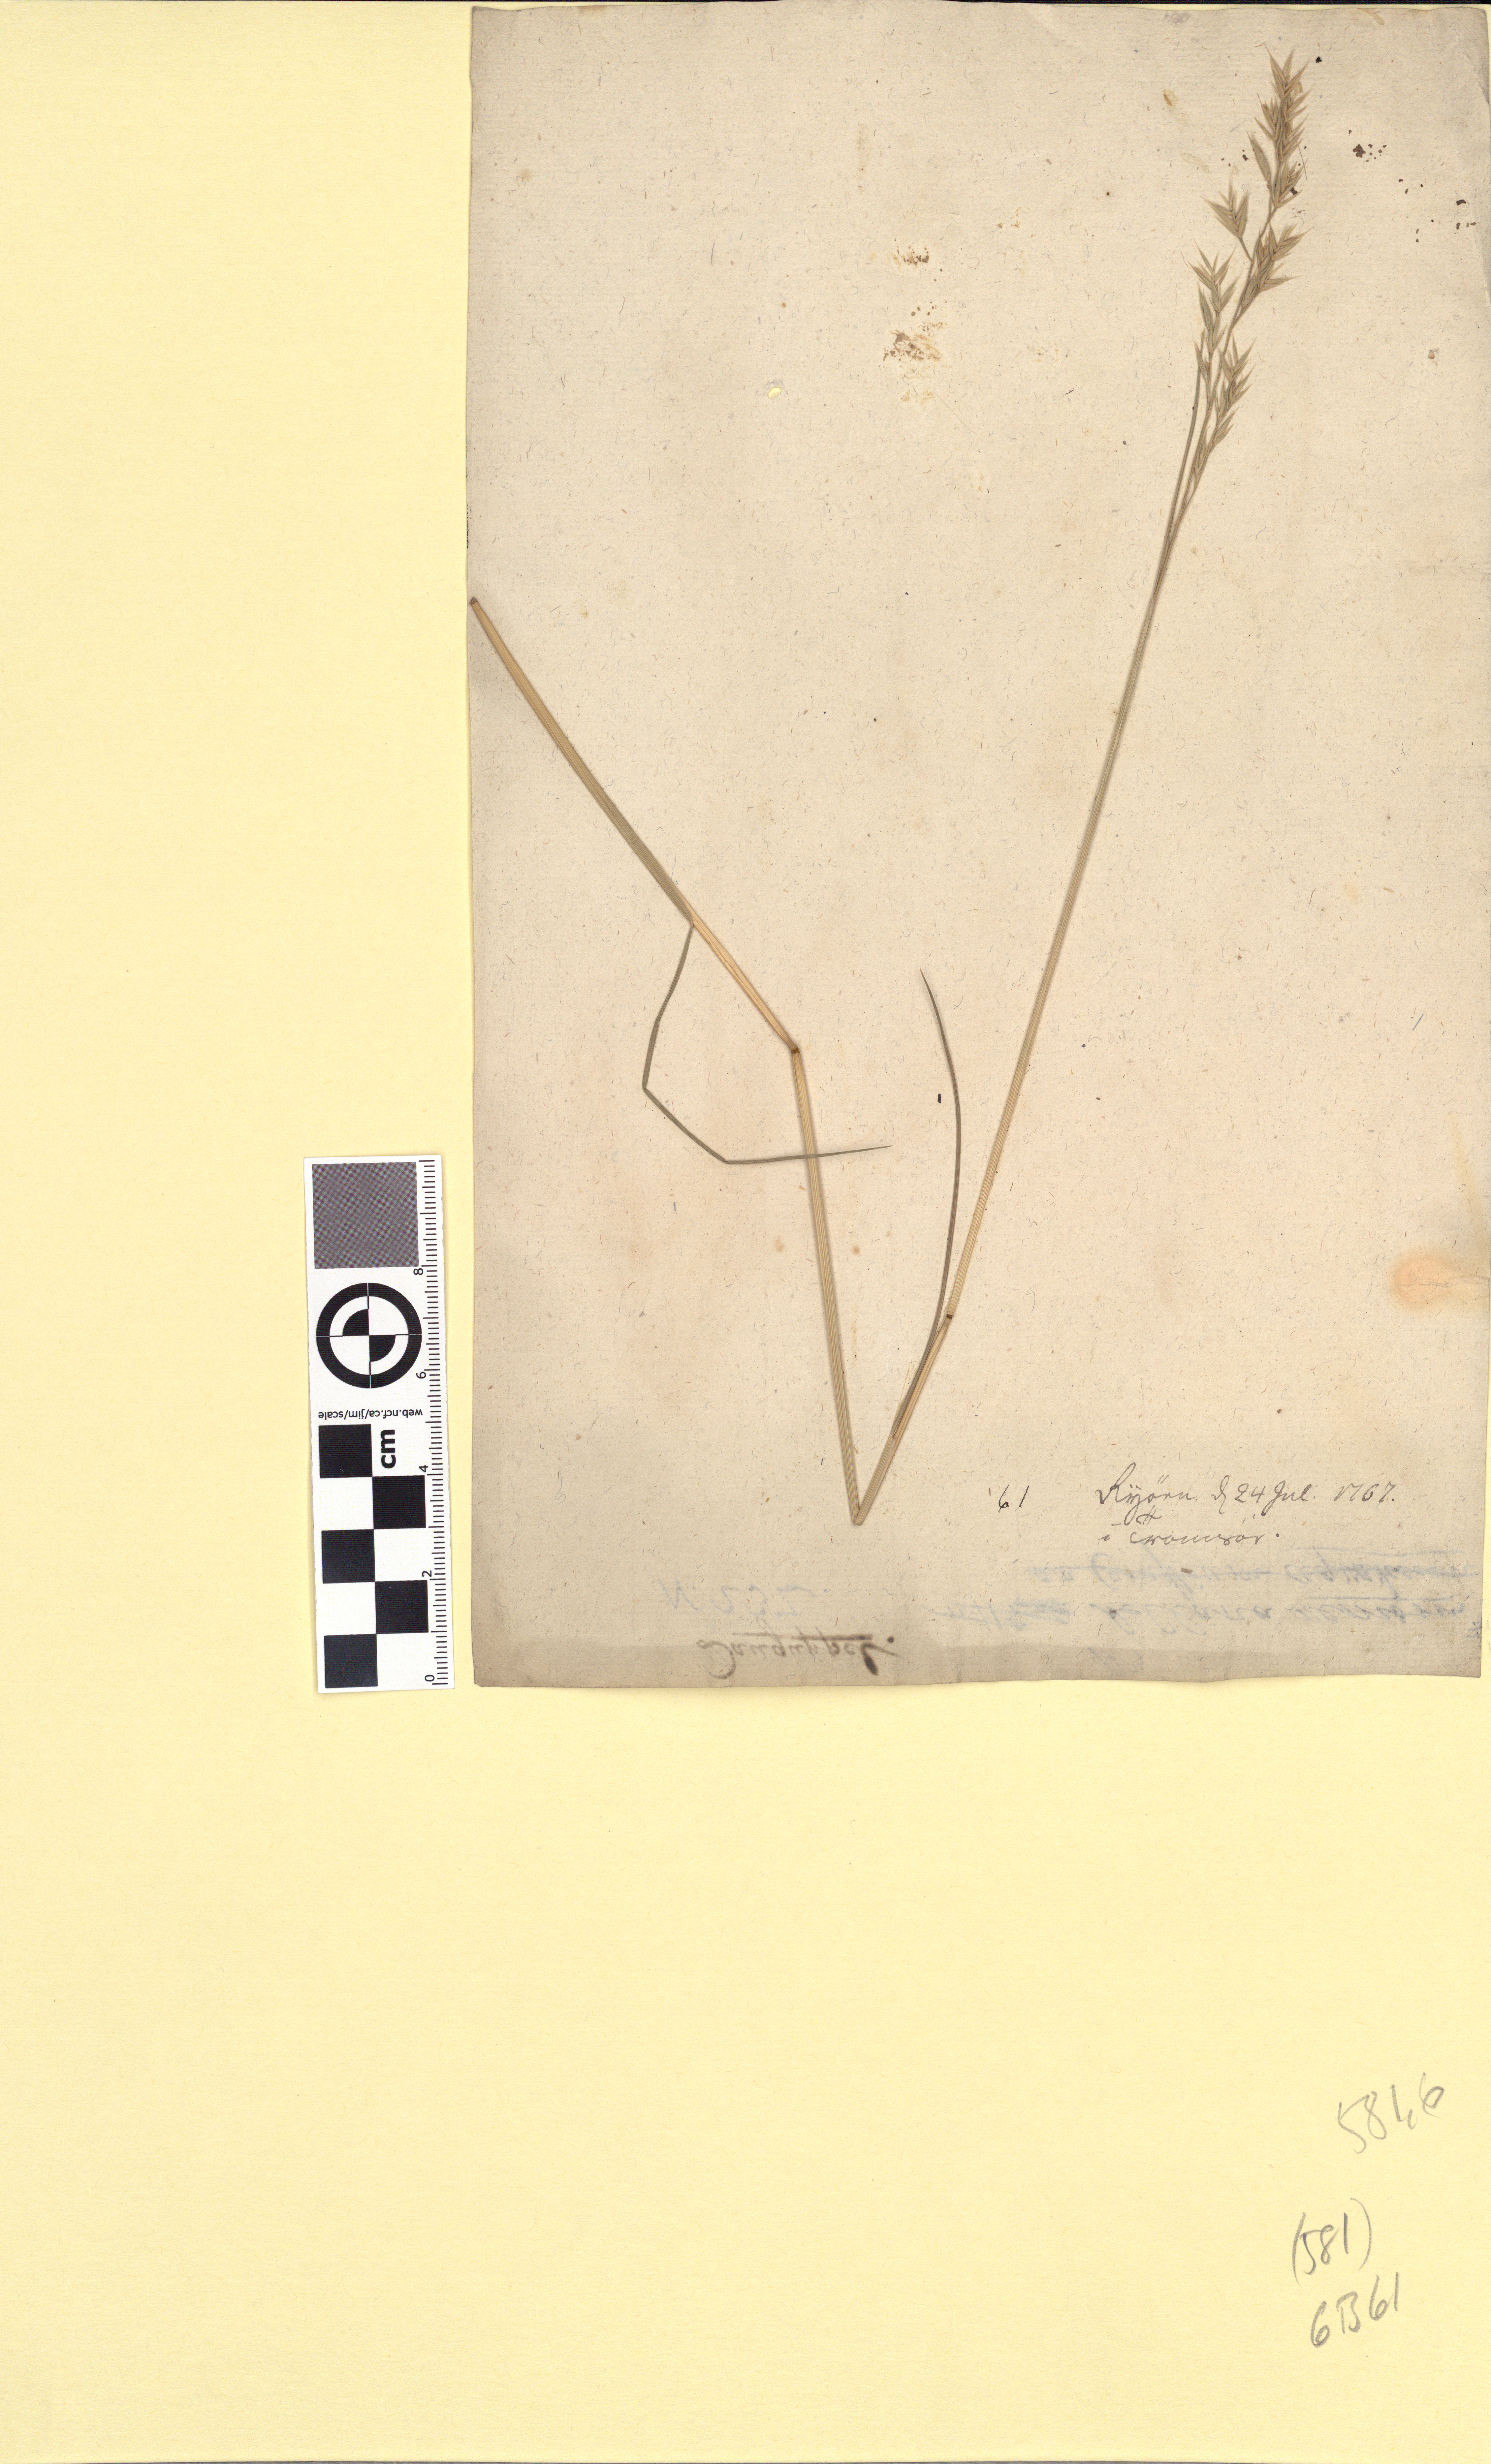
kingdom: Plantae
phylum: Tracheophyta
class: Liliopsida
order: Poales
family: Poaceae
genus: Festuca
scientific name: Festuca rubra
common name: Red fescue
